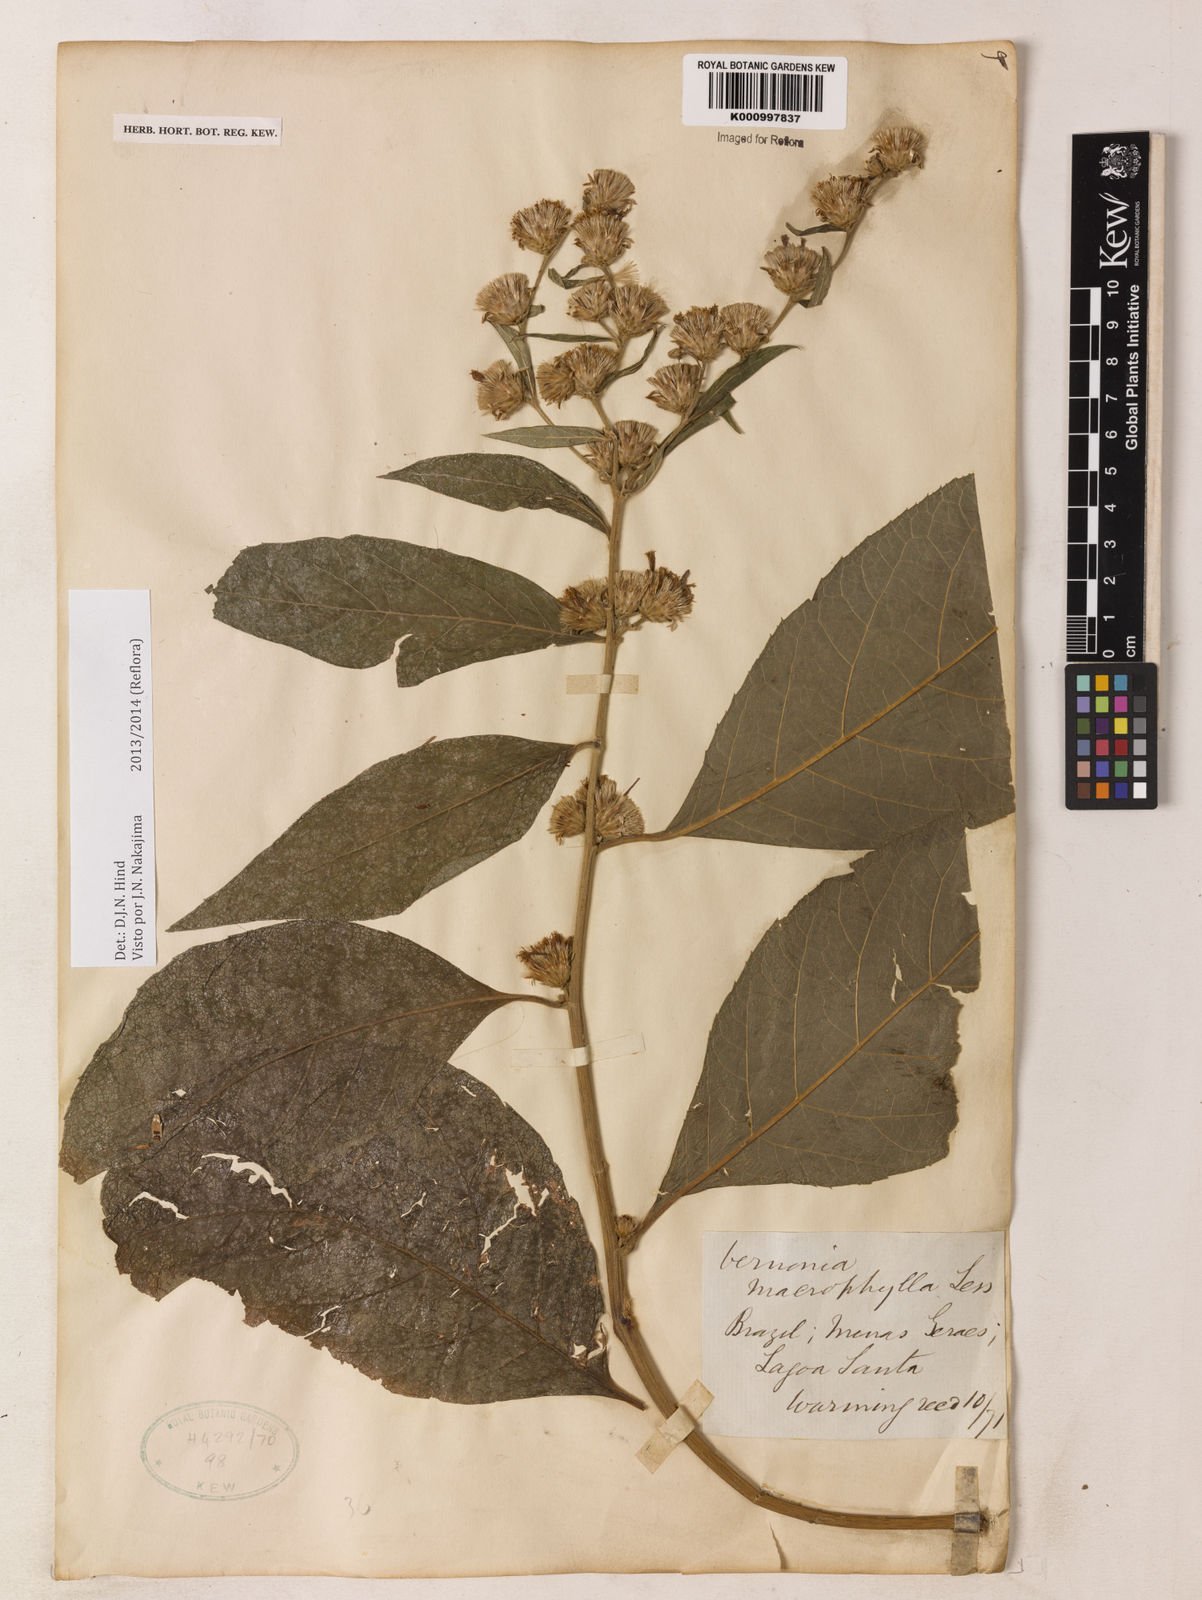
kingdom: Plantae
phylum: Tracheophyta
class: Magnoliopsida
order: Asterales
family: Asteraceae
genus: Lessingianthus
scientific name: Lessingianthus macrophyllus
